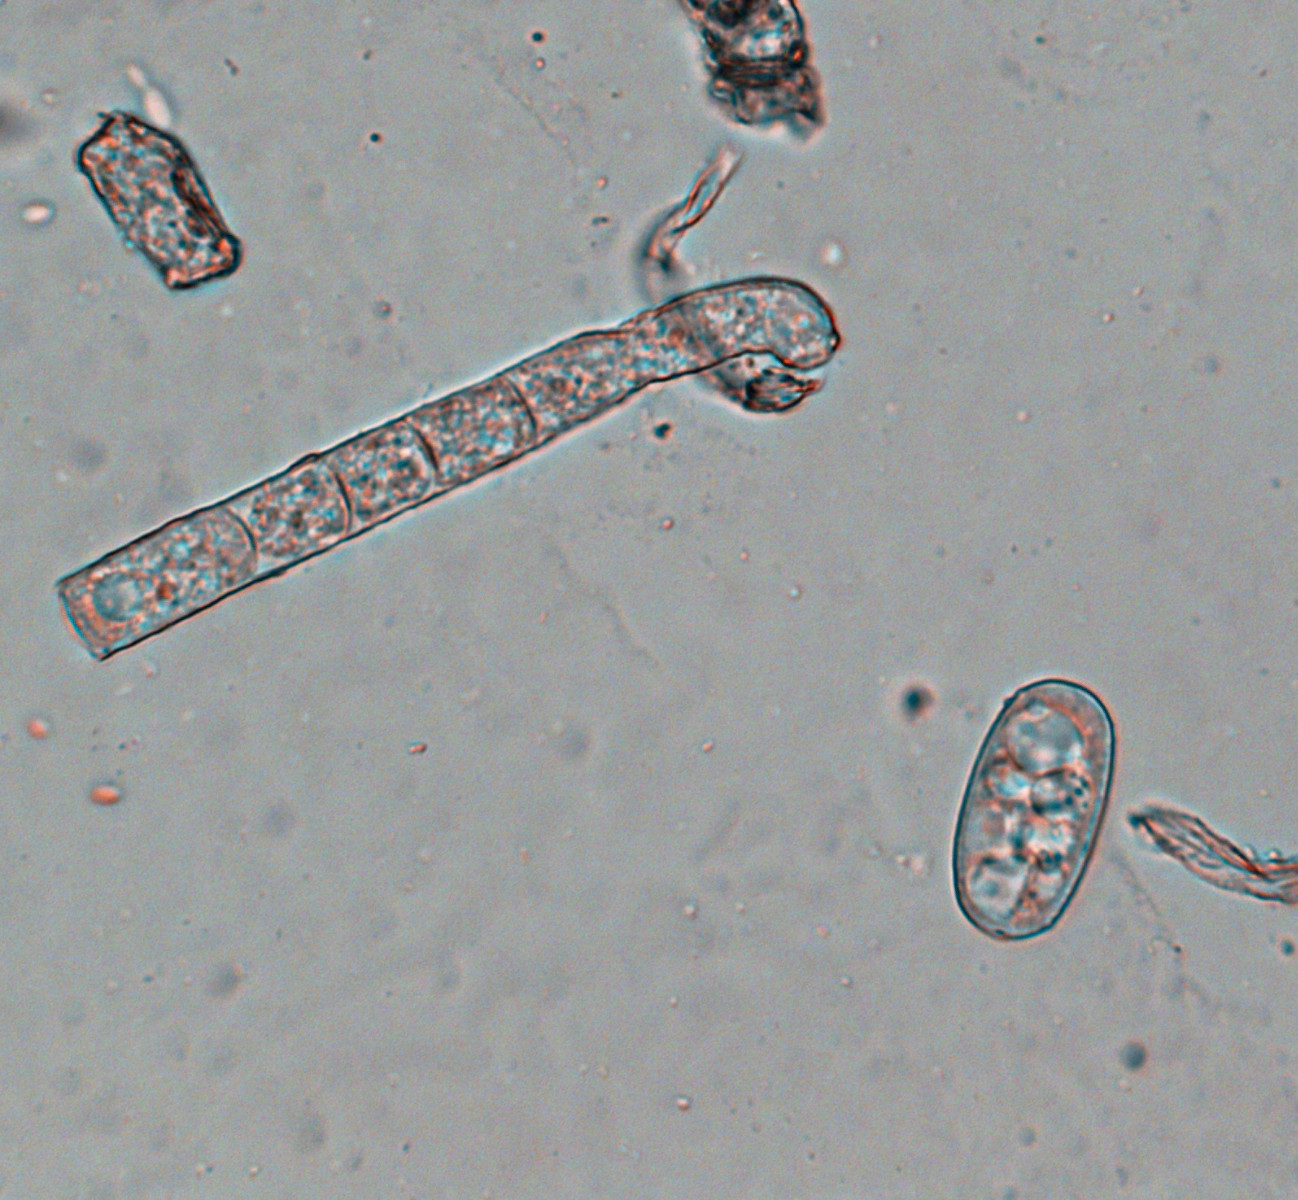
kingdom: Fungi
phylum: Ascomycota
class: Leotiomycetes
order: Helotiales
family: Erysiphaceae
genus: Golovinomyces
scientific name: Golovinomyces sonchicola
